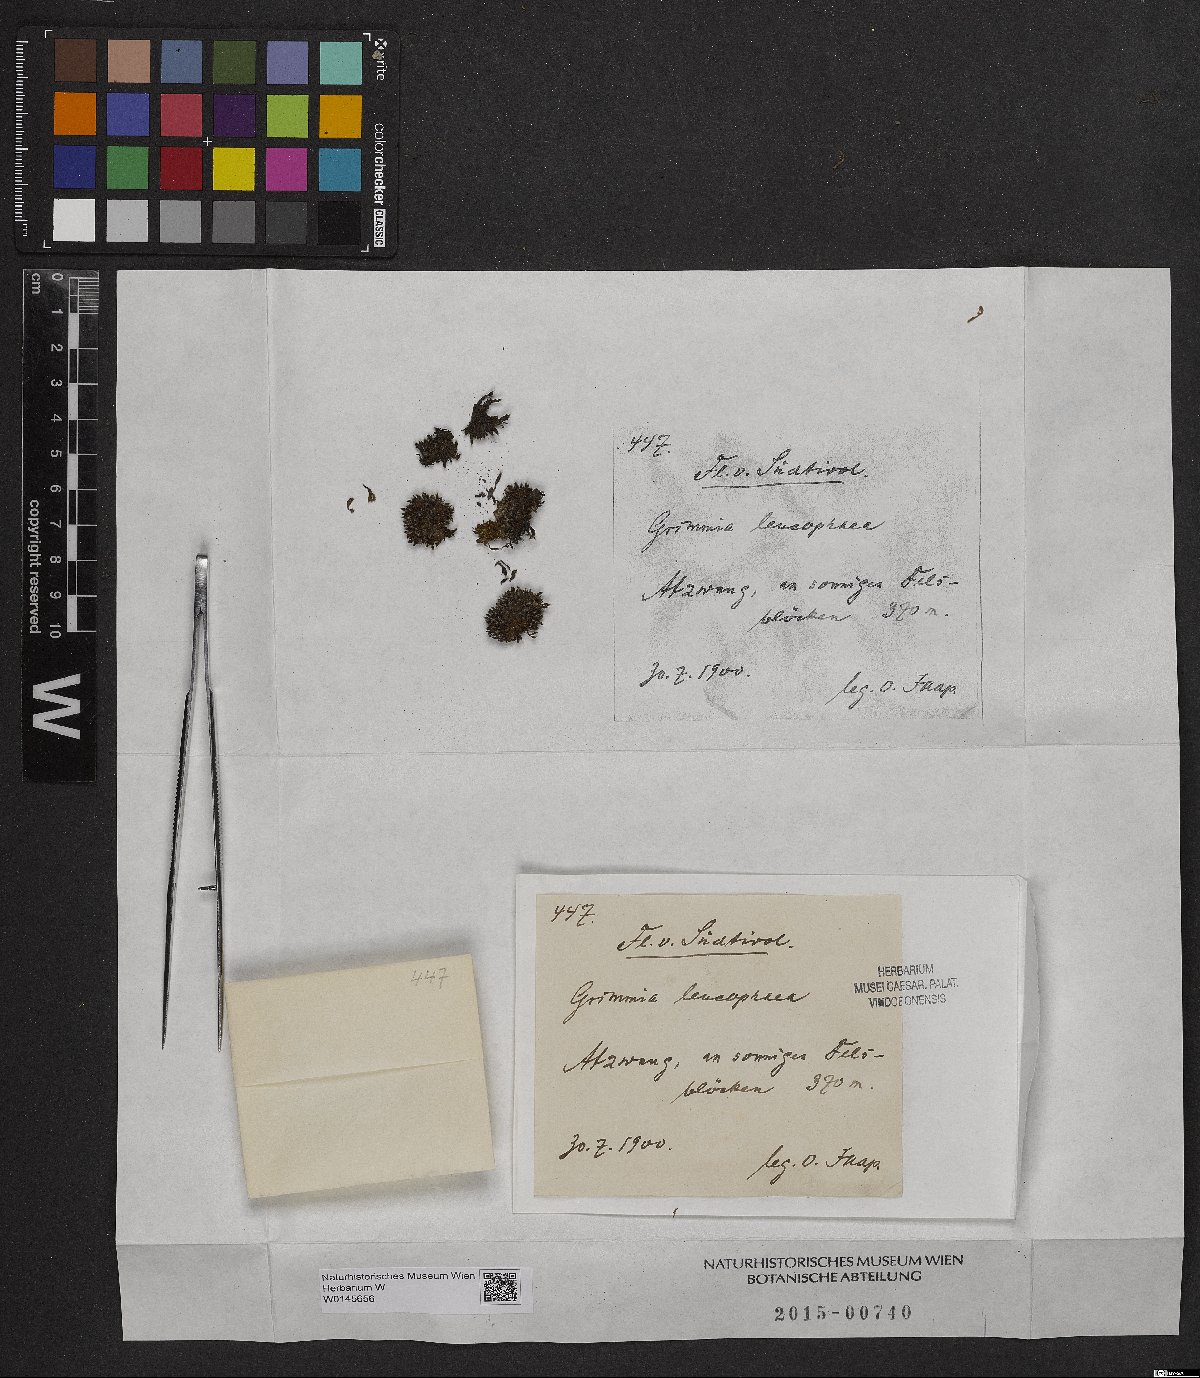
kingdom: Plantae
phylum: Bryophyta
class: Bryopsida
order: Grimmiales
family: Grimmiaceae
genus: Grimmia
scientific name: Grimmia laevigata
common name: Hoary grimmia
